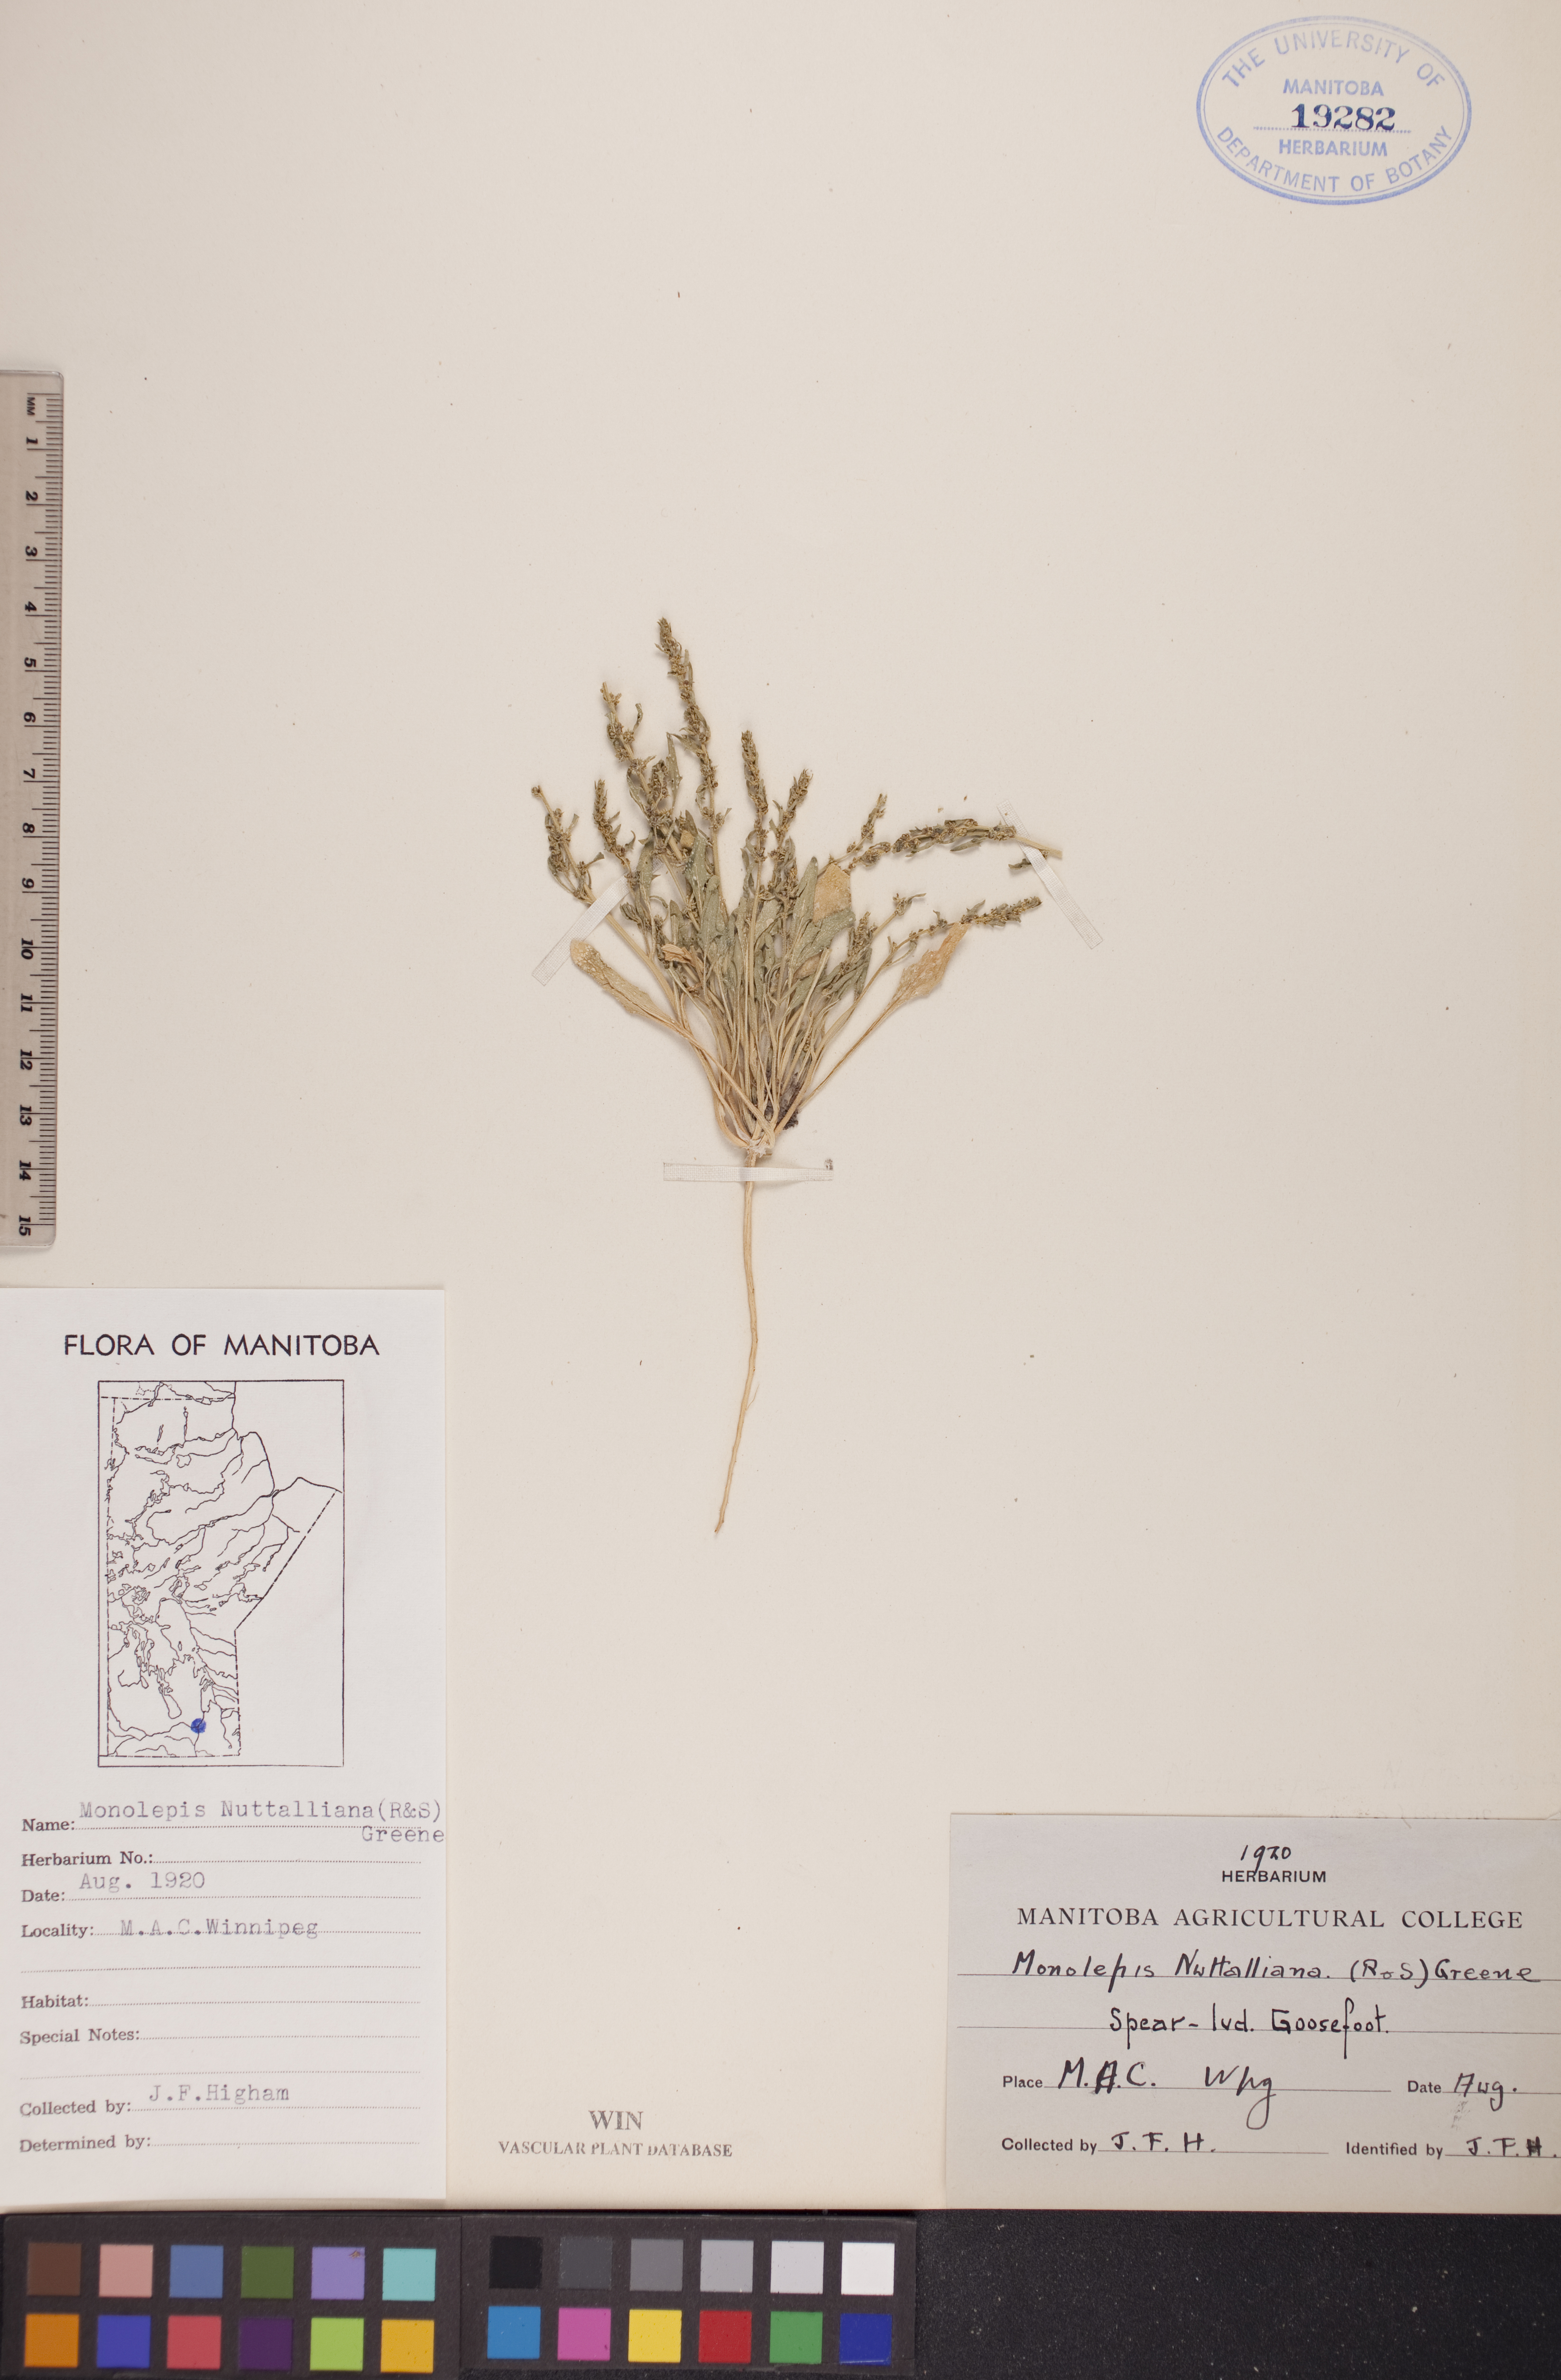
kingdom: Plantae
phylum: Tracheophyta
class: Magnoliopsida
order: Caryophyllales
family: Amaranthaceae
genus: Blitum
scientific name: Blitum nuttallianum
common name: Poverty-weed
